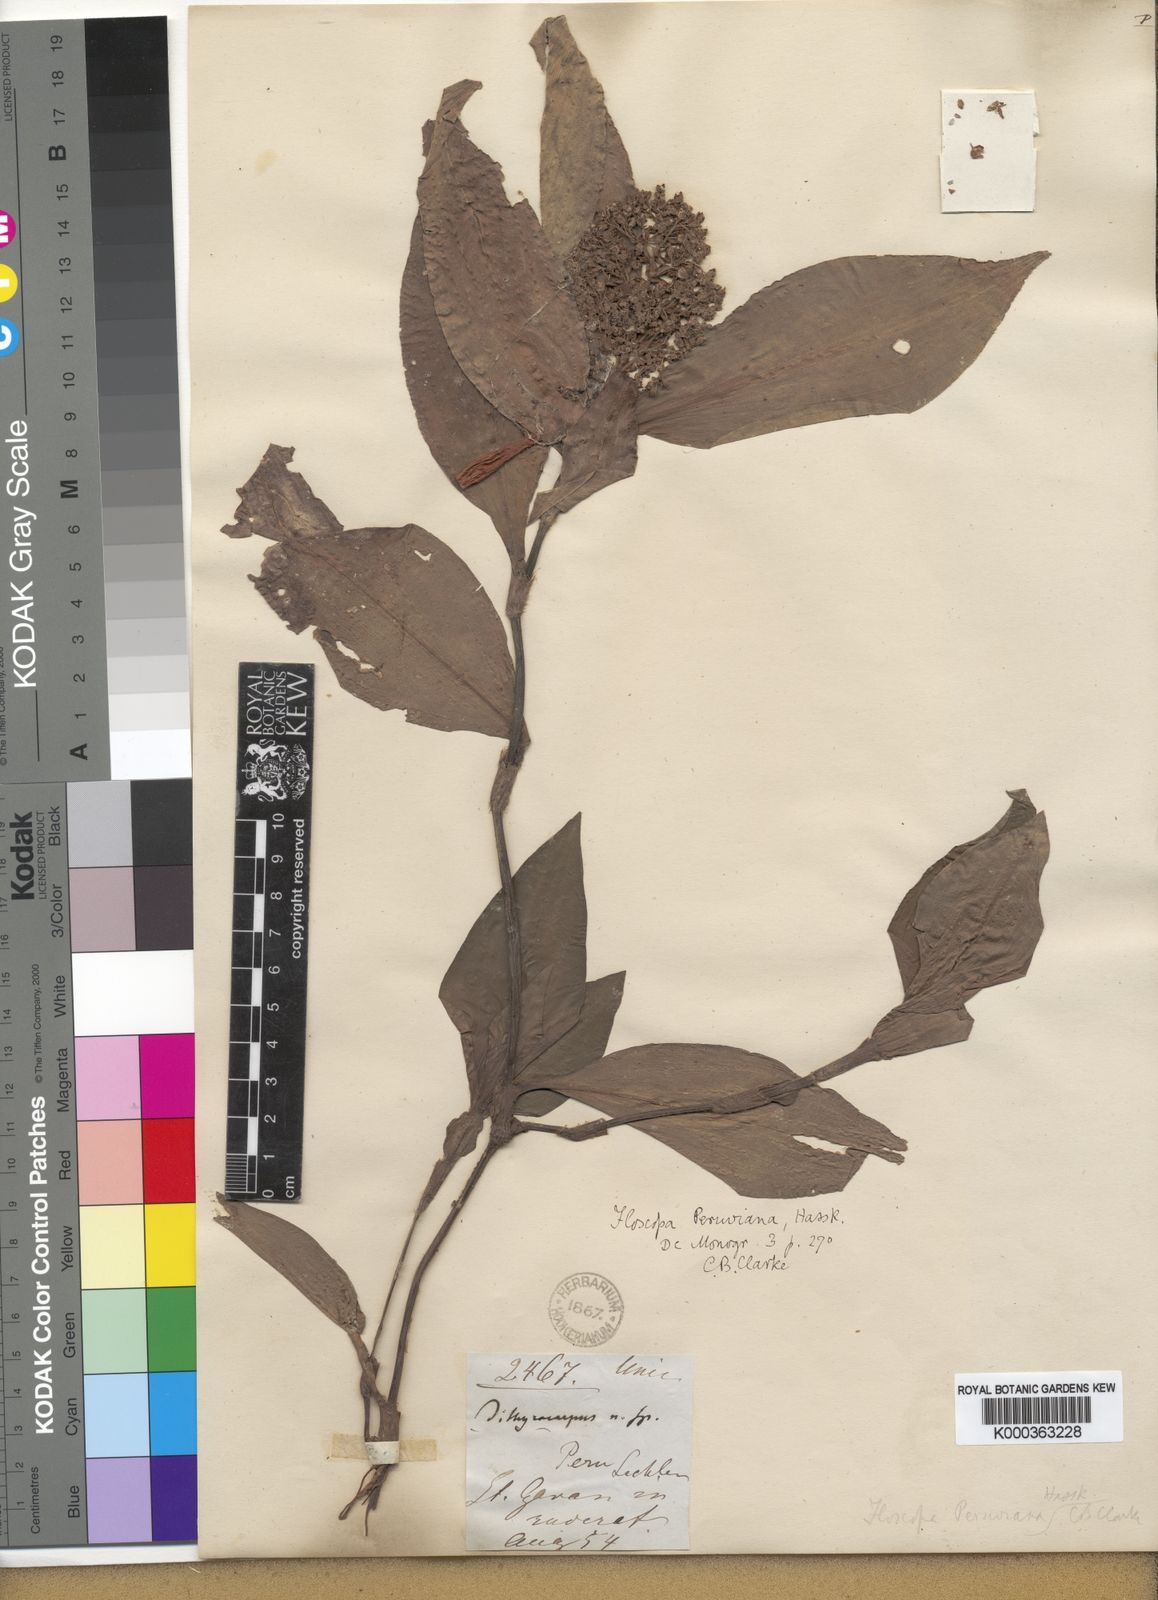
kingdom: Plantae
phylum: Tracheophyta
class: Liliopsida
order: Commelinales
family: Commelinaceae
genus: Floscopa
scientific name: Floscopa peruviana
